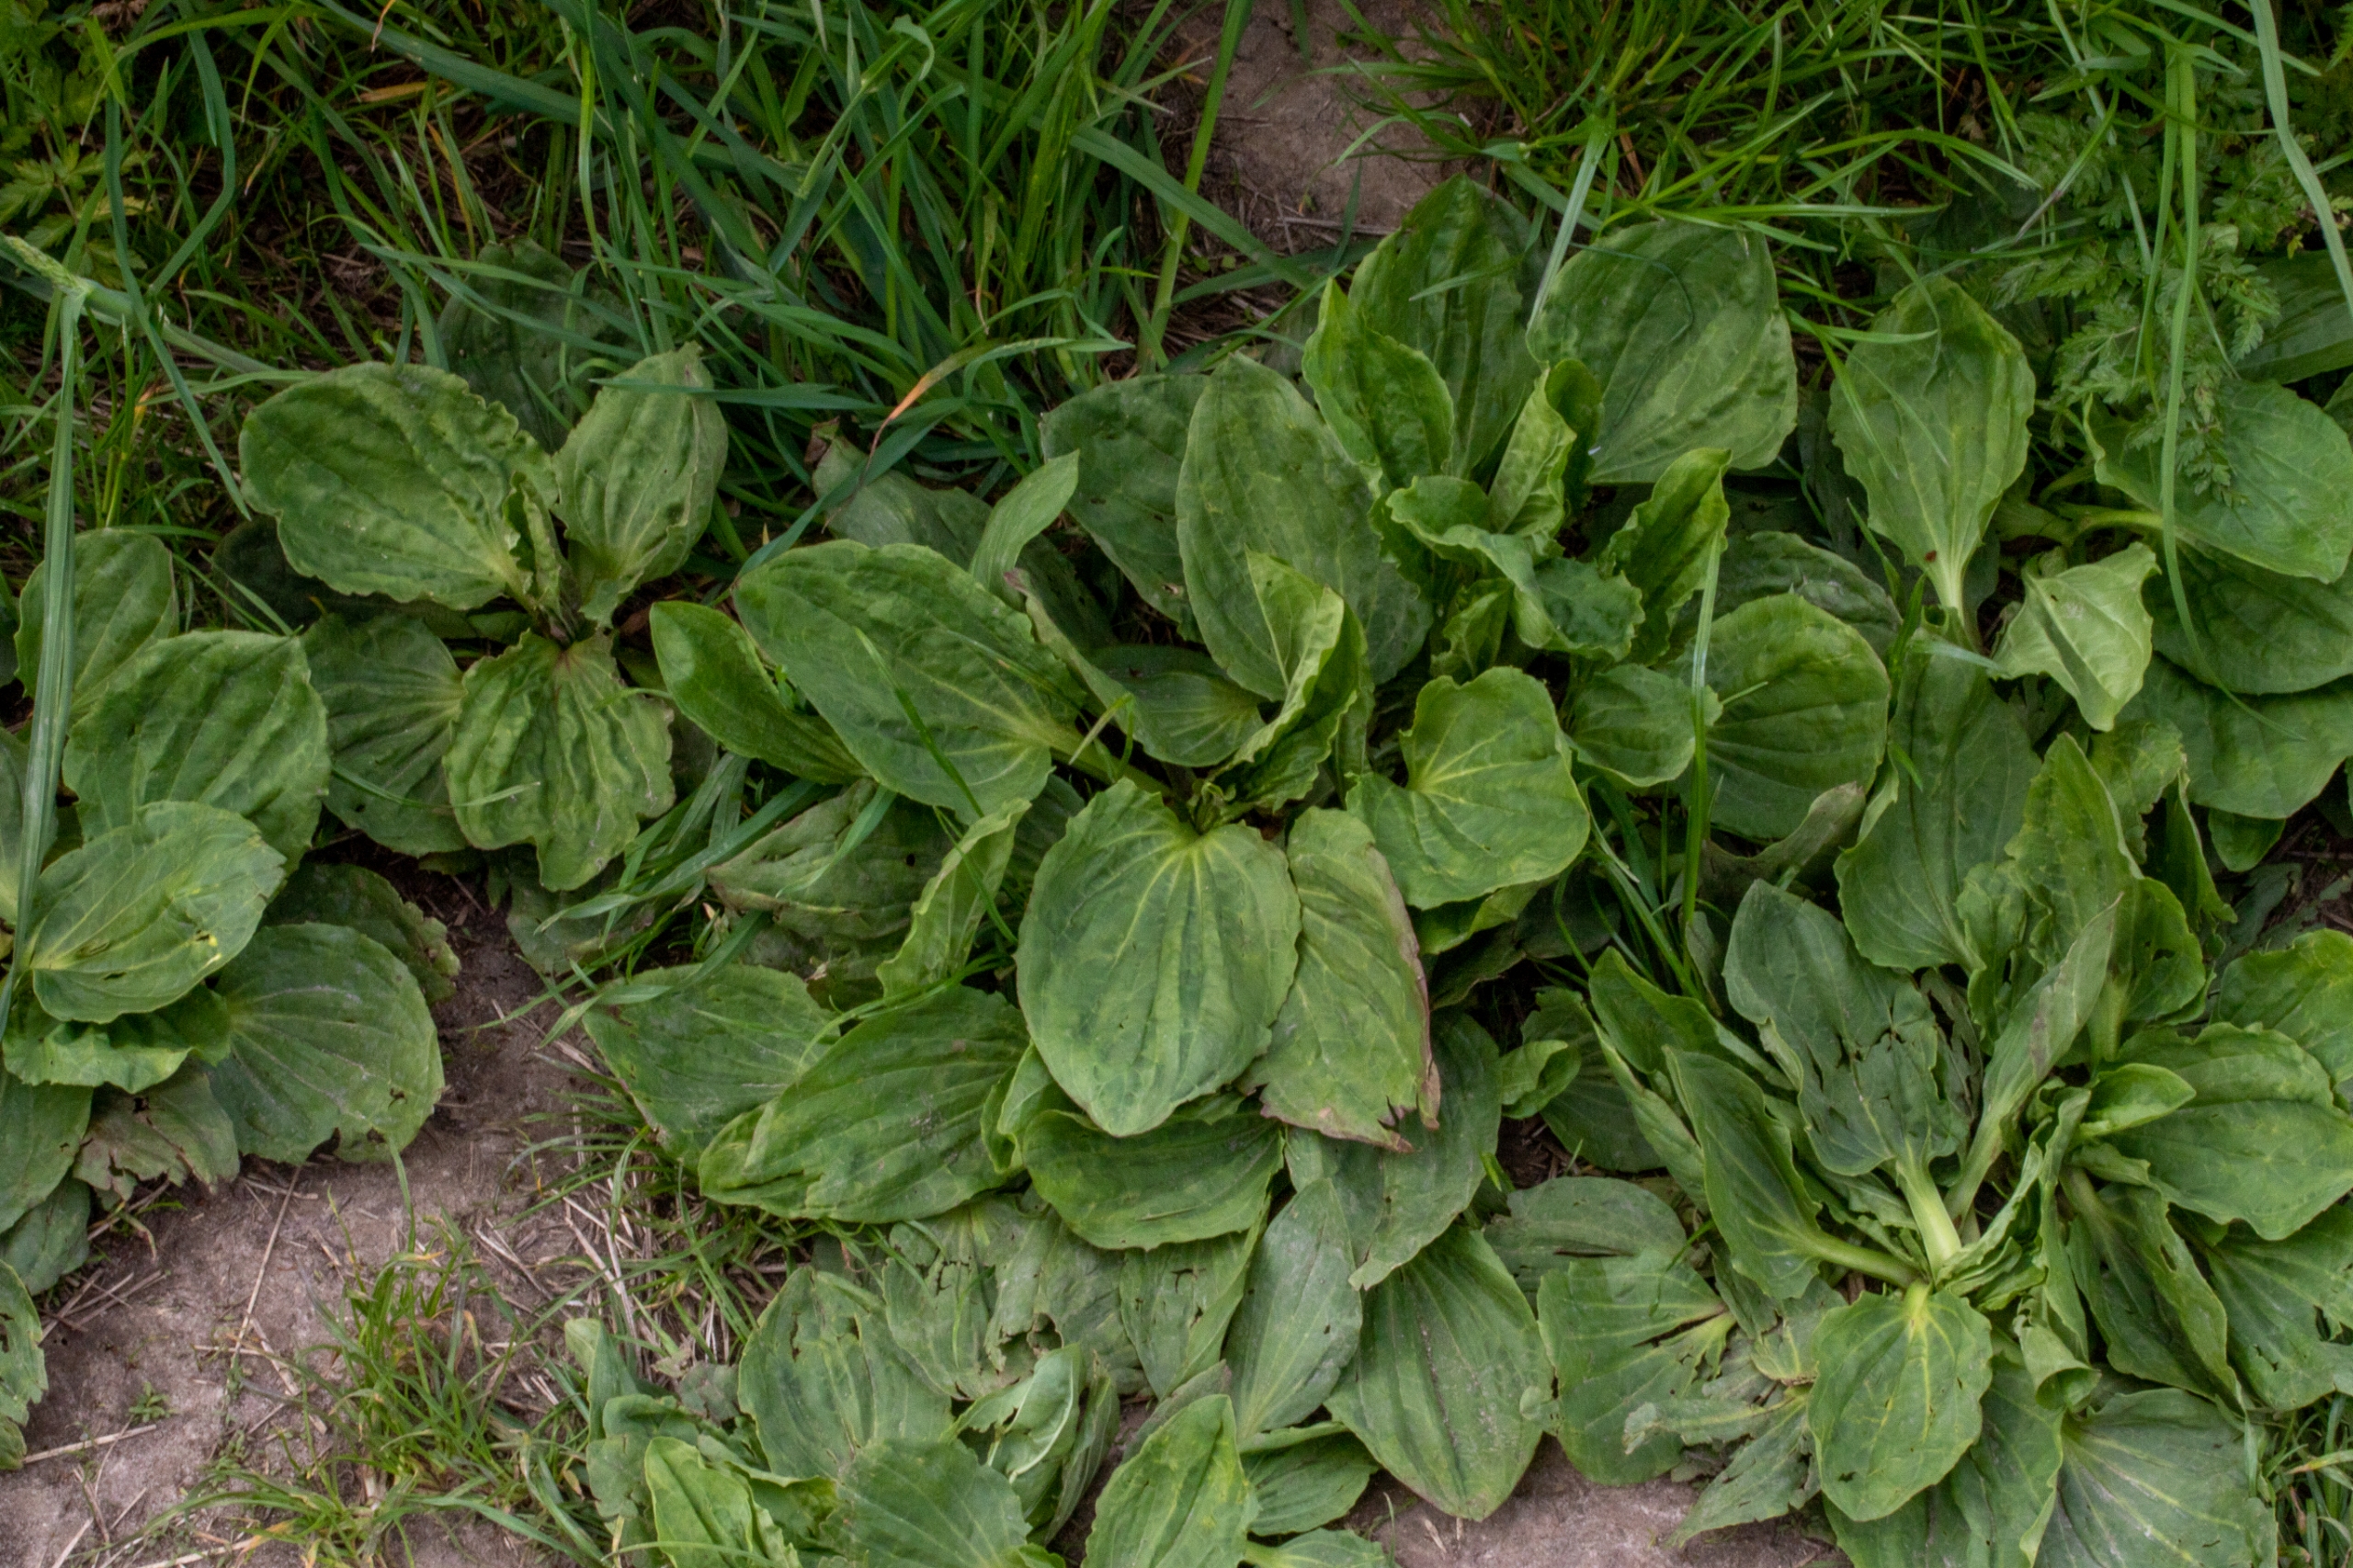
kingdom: Plantae
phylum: Tracheophyta
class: Magnoliopsida
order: Lamiales
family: Plantaginaceae
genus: Plantago
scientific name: Plantago major
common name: Glat vejbred
